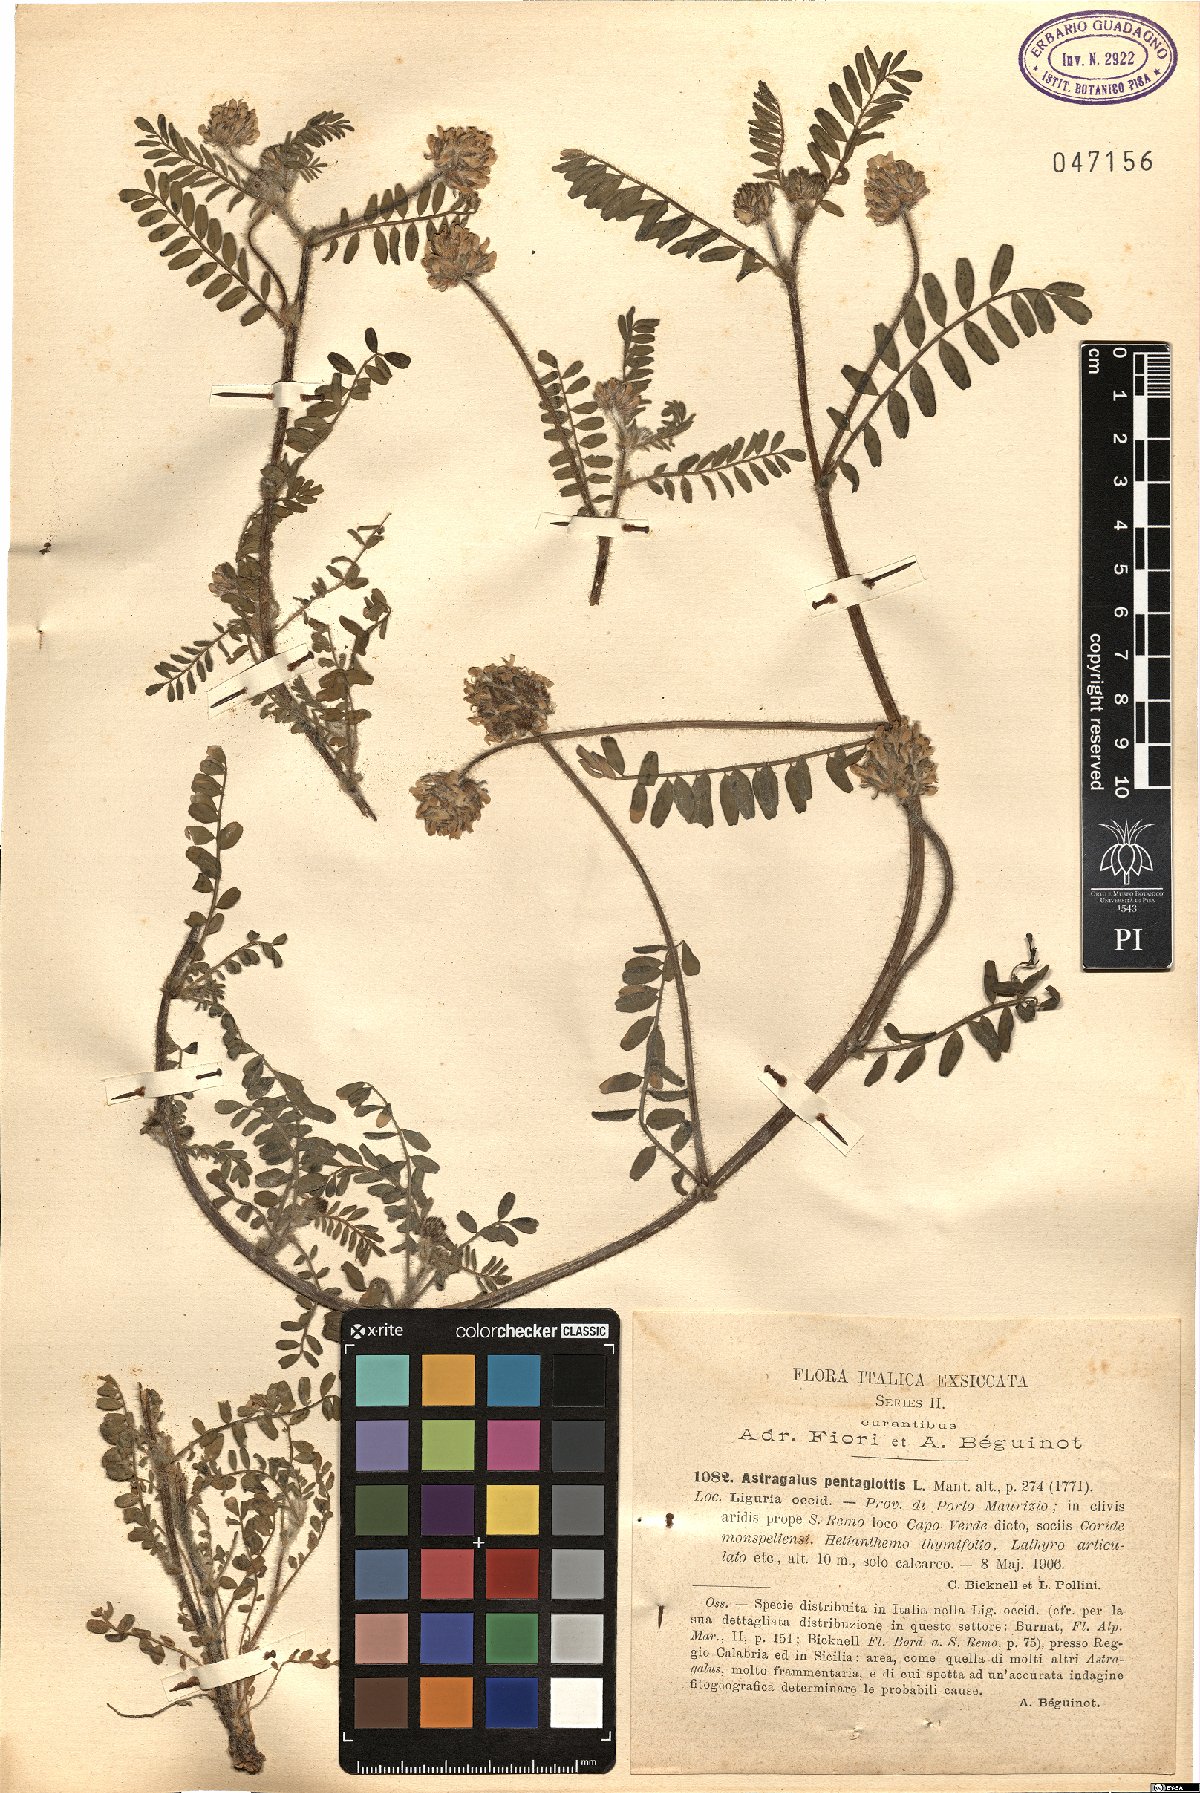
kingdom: Plantae
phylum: Tracheophyta
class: Magnoliopsida
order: Fabales
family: Fabaceae
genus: Astragalus
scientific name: Astragalus echinatus
